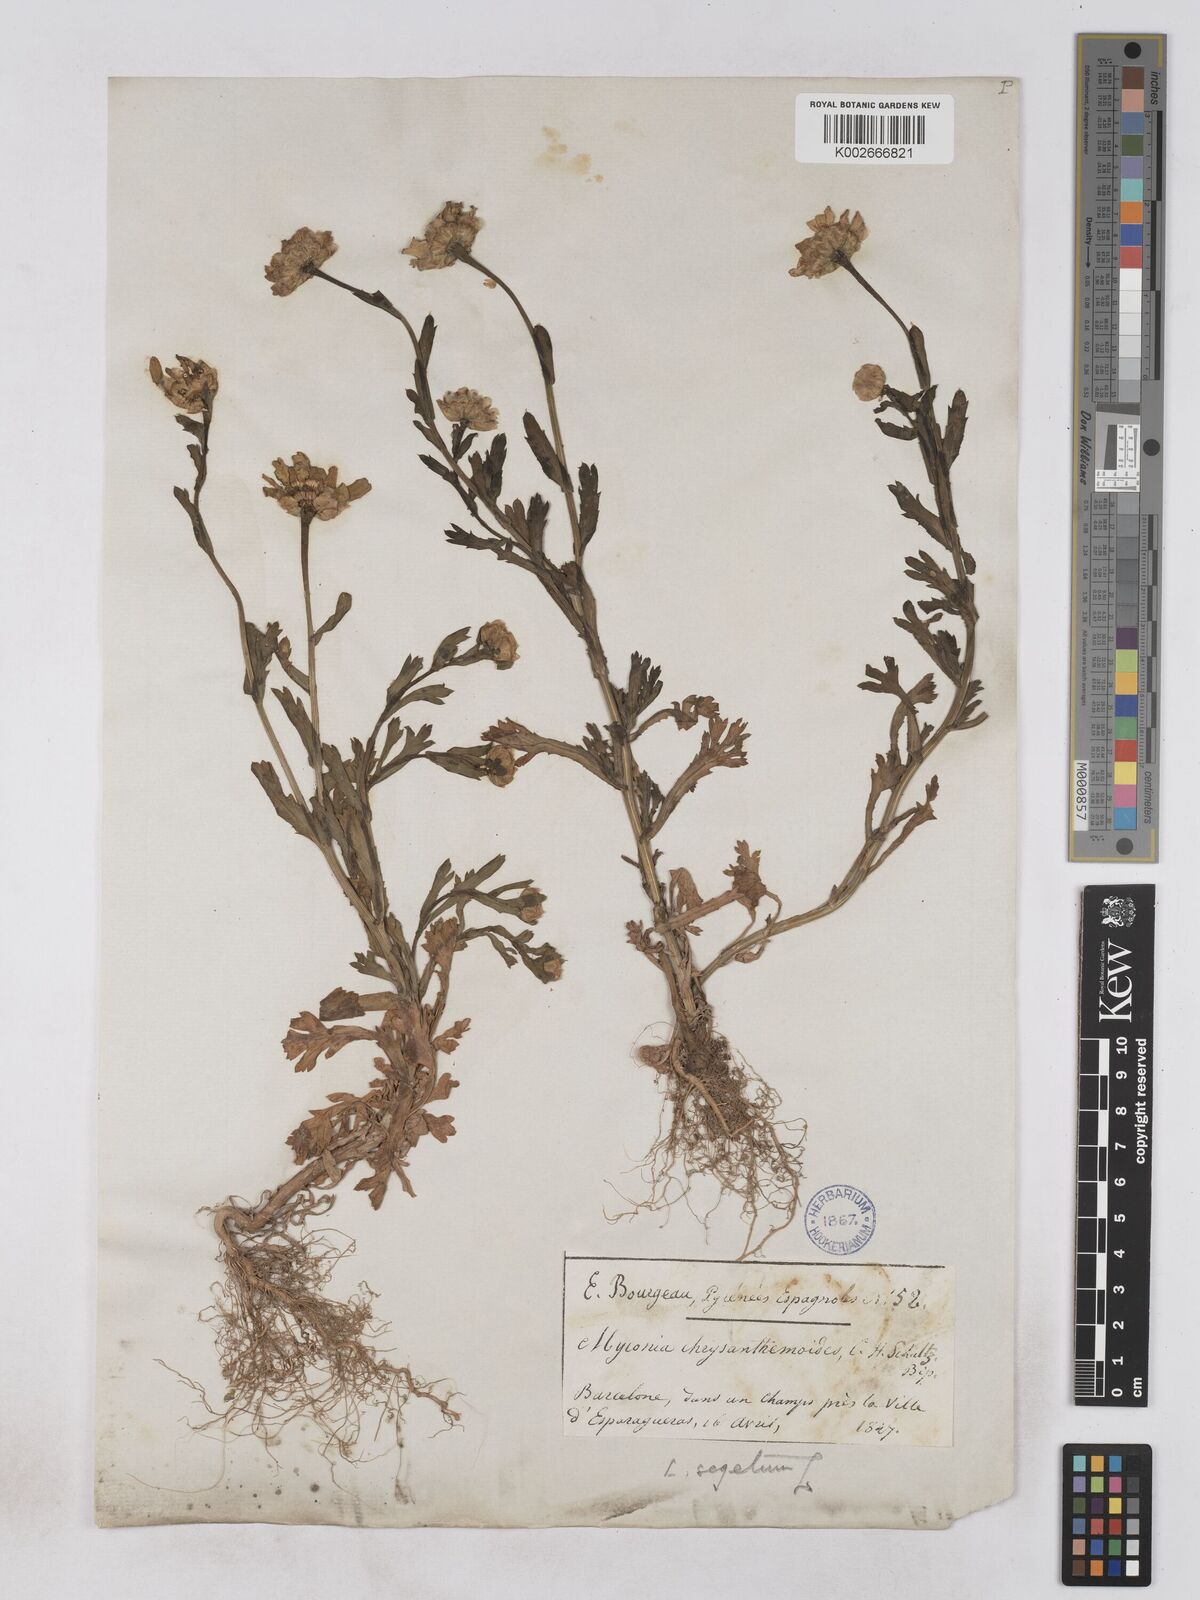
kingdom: Plantae
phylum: Tracheophyta
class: Magnoliopsida
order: Asterales
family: Asteraceae
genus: Glebionis
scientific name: Glebionis segetum
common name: Corndaisy
